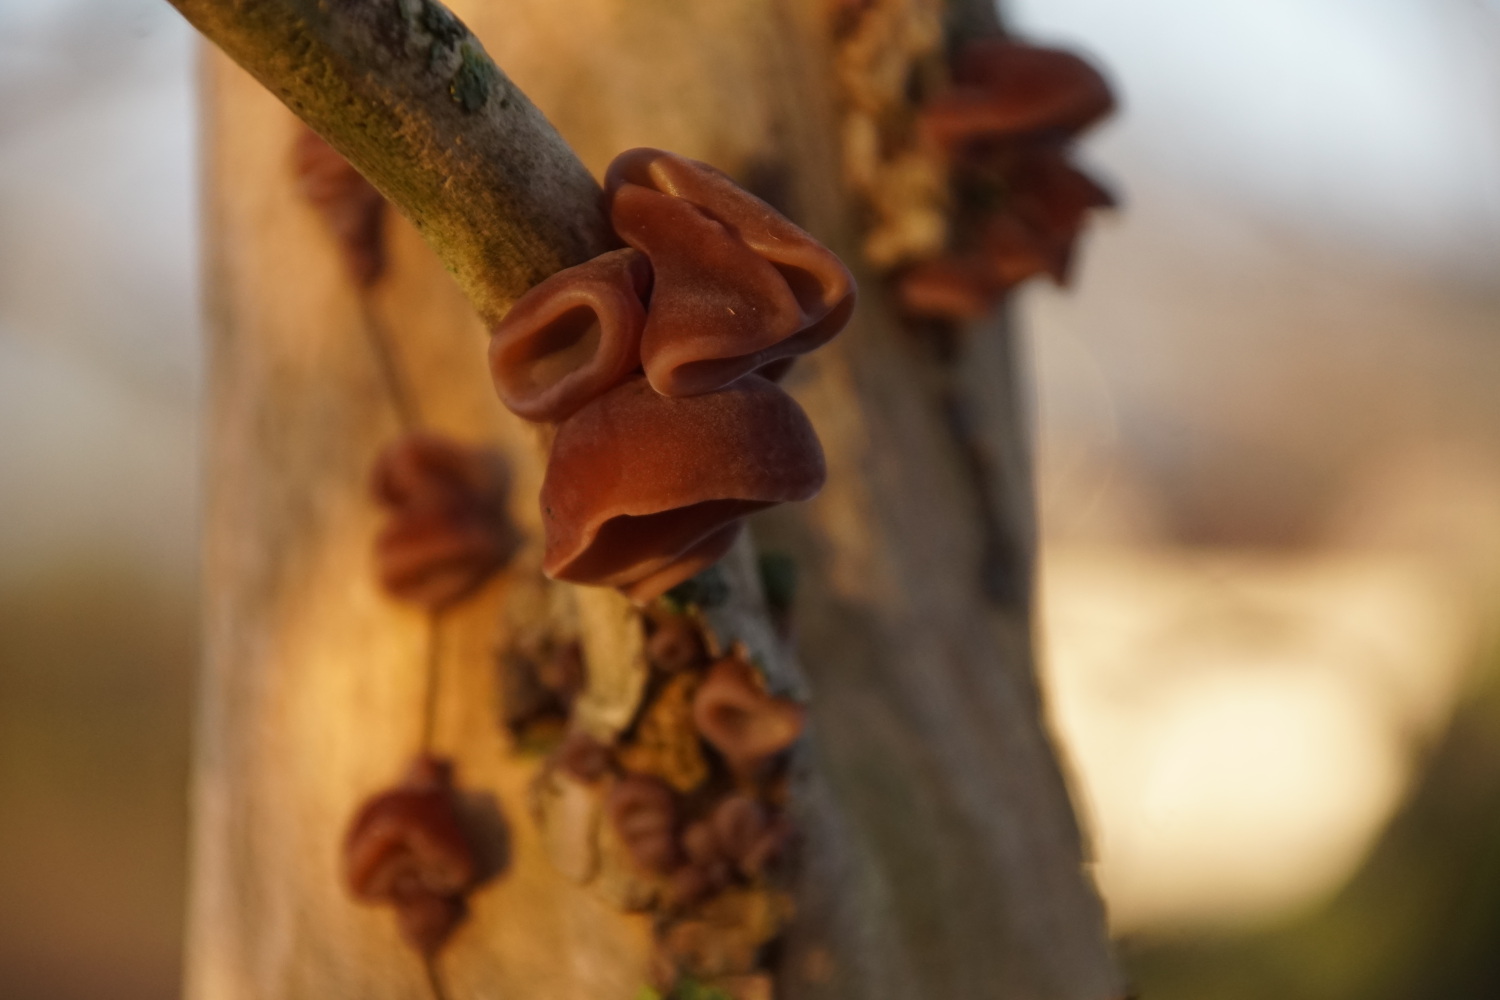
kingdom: Fungi
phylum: Basidiomycota
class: Agaricomycetes
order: Auriculariales
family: Auriculariaceae
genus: Auricularia
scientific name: Auricularia auricula-judae
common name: almindelig judasøre
